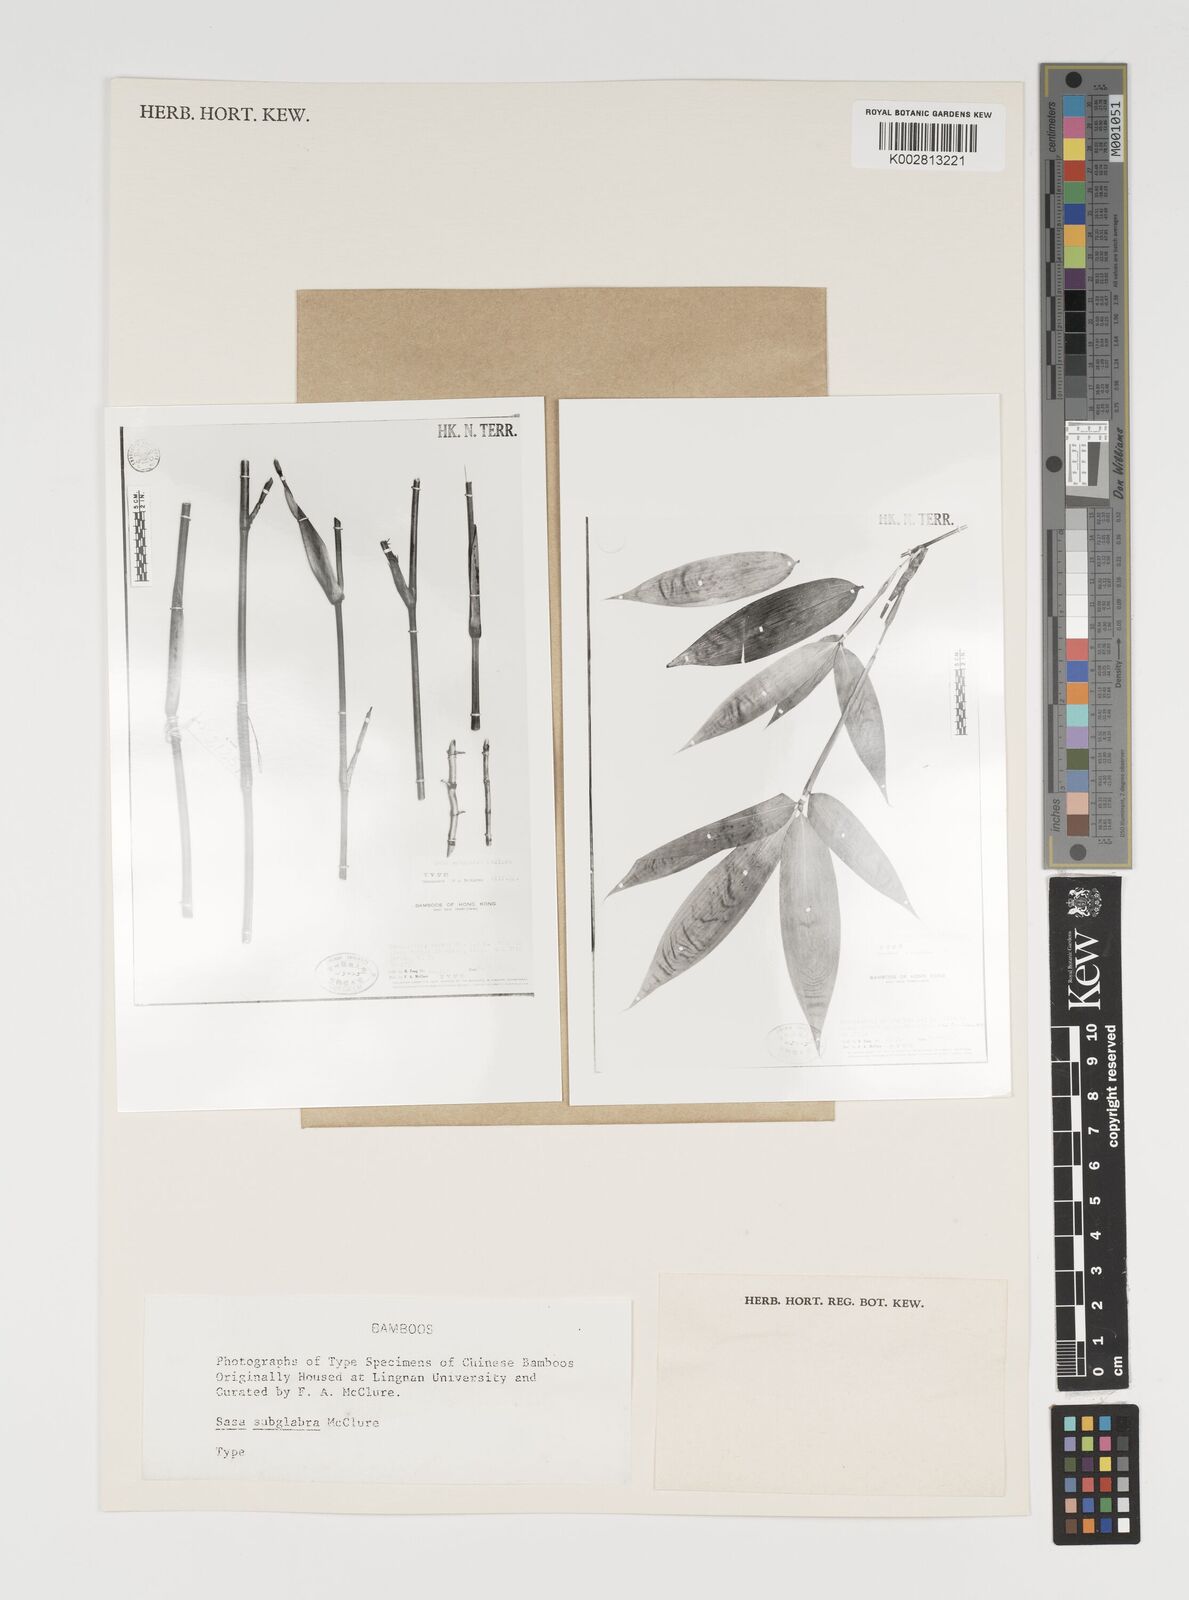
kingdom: Plantae
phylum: Tracheophyta
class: Liliopsida
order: Poales
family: Poaceae
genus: Sasa
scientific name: Sasa subglabra
